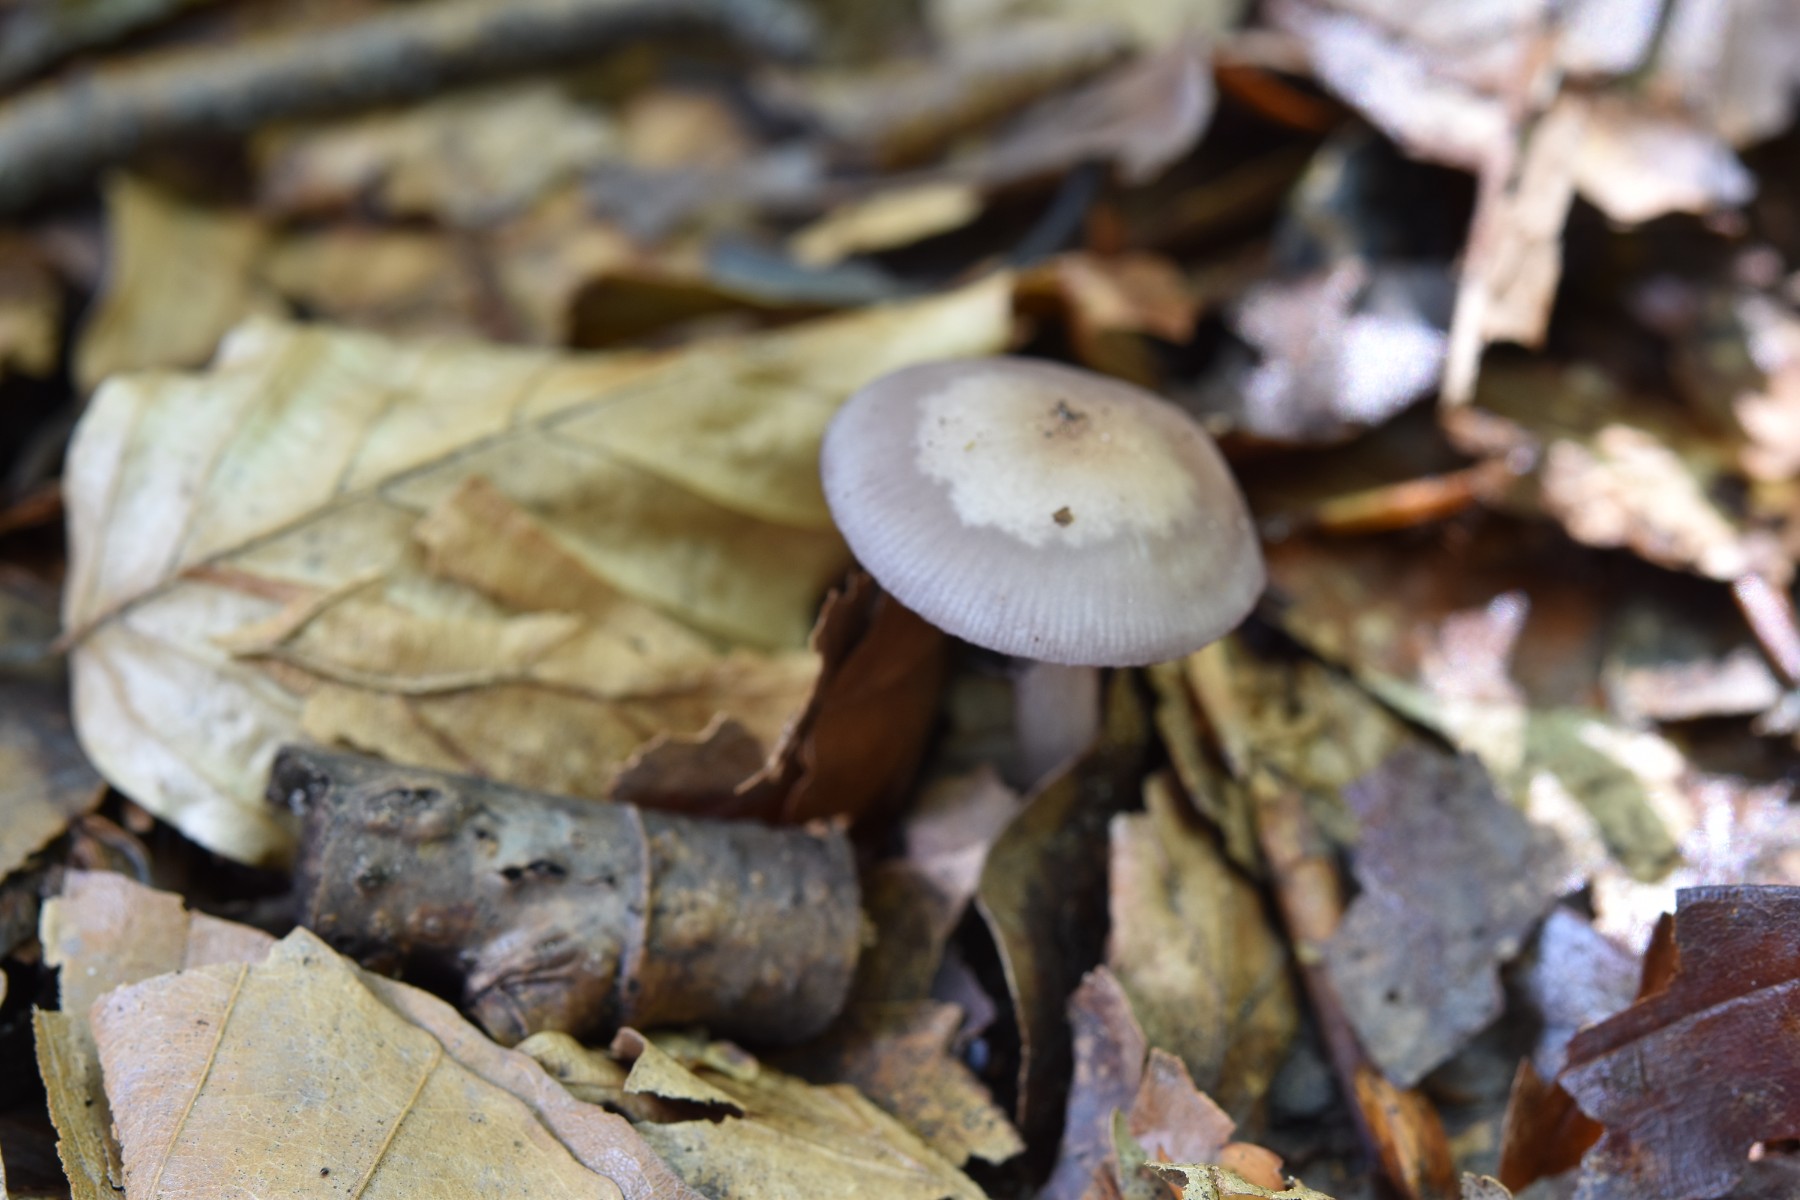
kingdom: Fungi
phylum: Basidiomycota
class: Agaricomycetes
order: Agaricales
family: Mycenaceae
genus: Mycena
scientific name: Mycena pelianthina
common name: mørkbladet huesvamp
